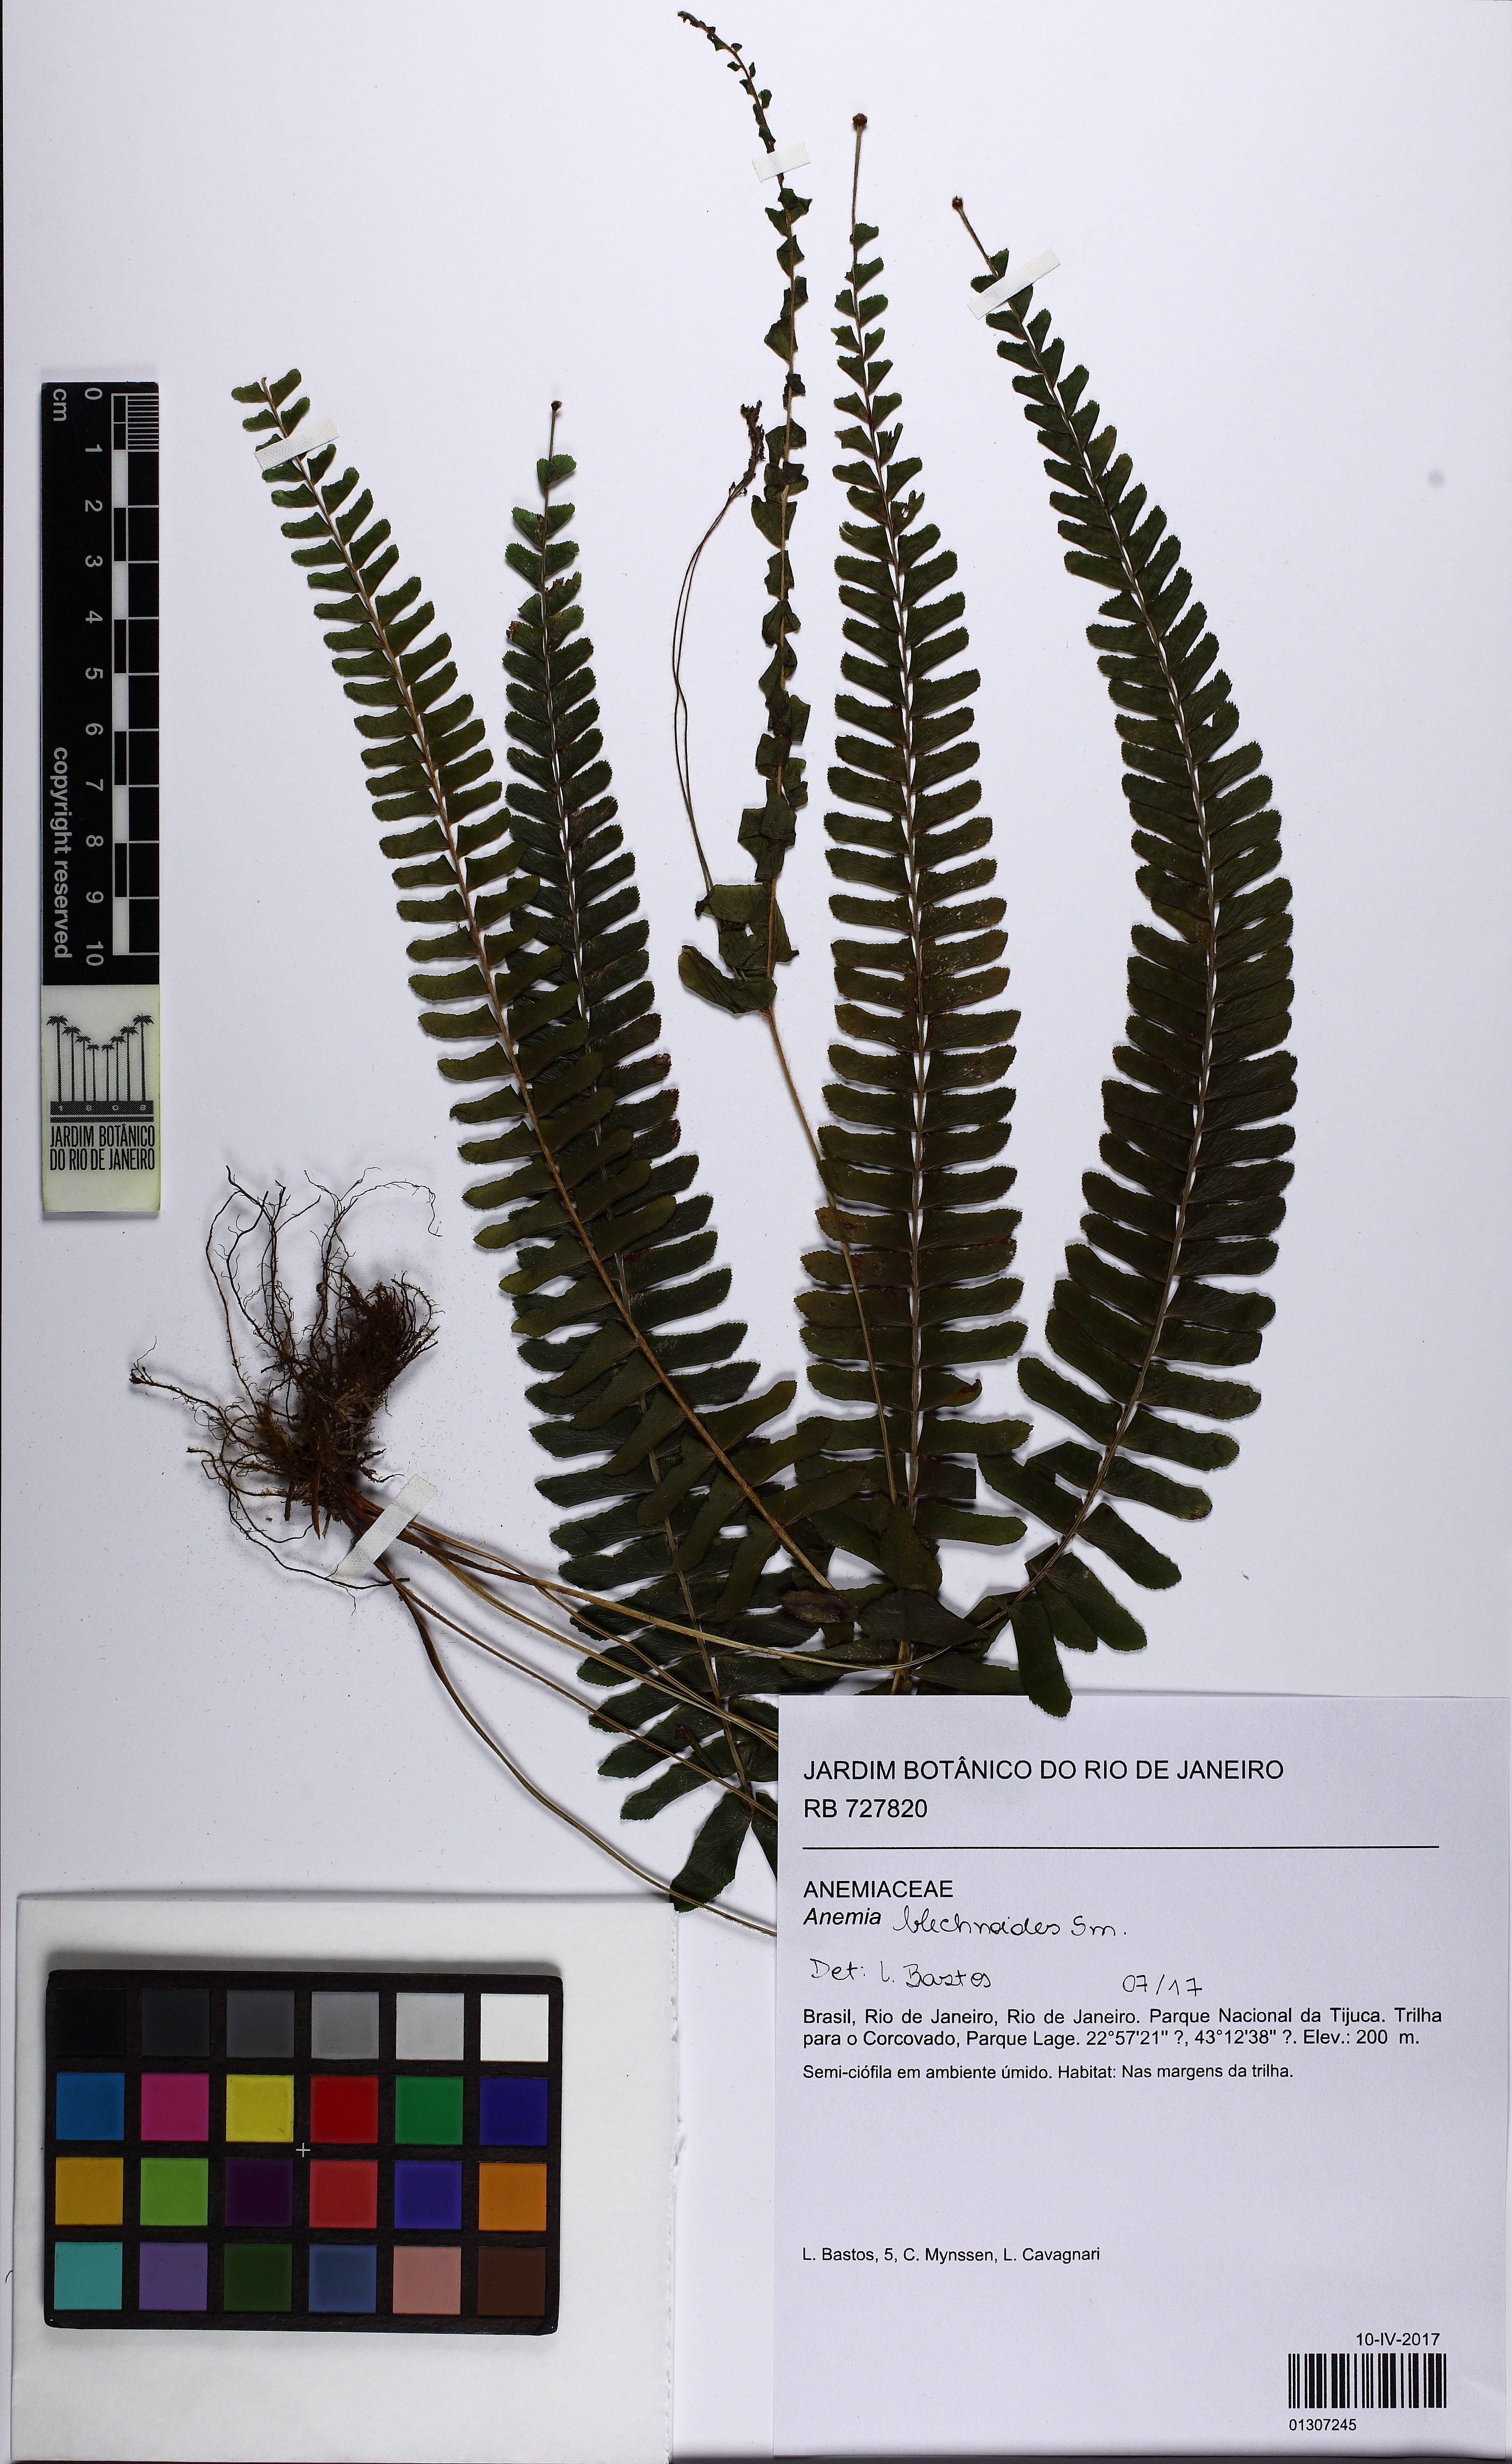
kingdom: Plantae
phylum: Tracheophyta
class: Polypodiopsida
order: Schizaeales
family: Anemiaceae
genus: Anemia
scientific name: Anemia blechnoides
